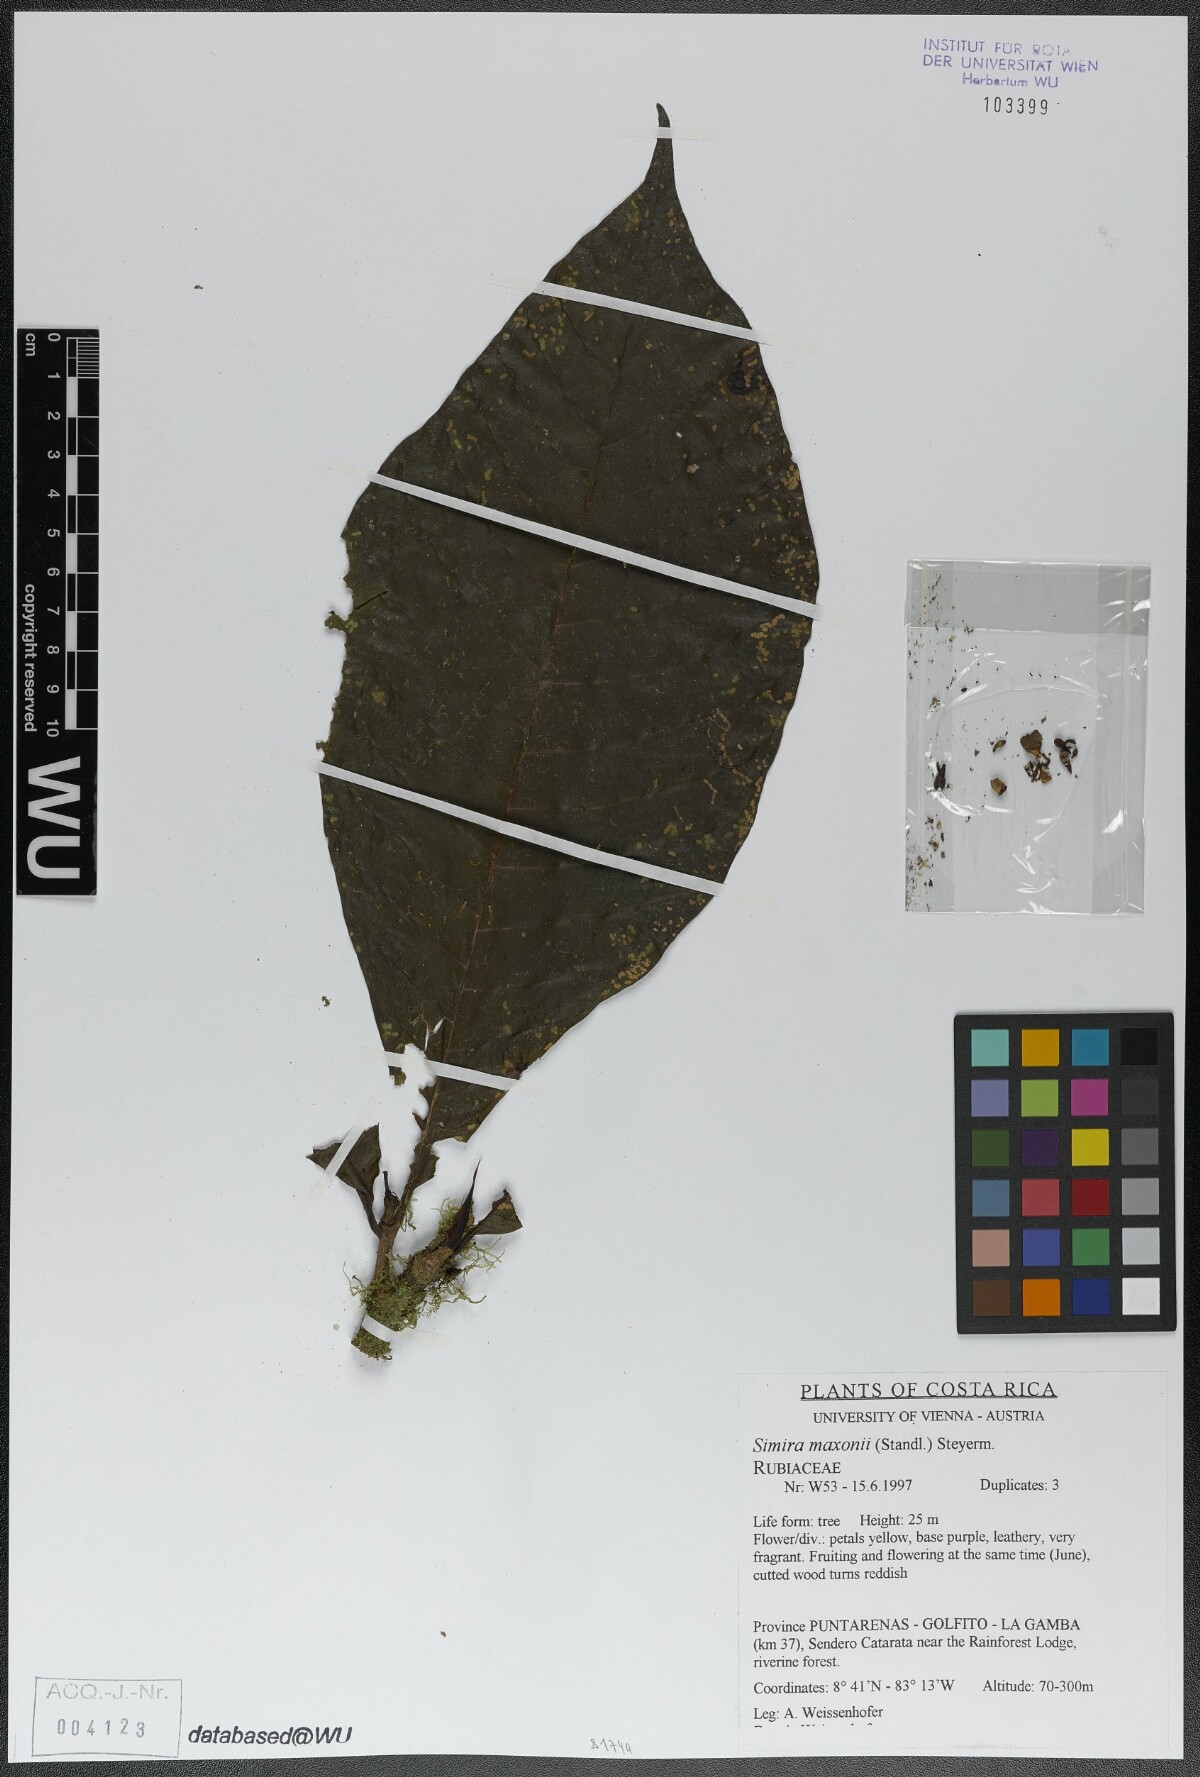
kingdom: Plantae
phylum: Tracheophyta
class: Magnoliopsida
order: Gentianales
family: Rubiaceae
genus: Simira
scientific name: Simira maxonii
